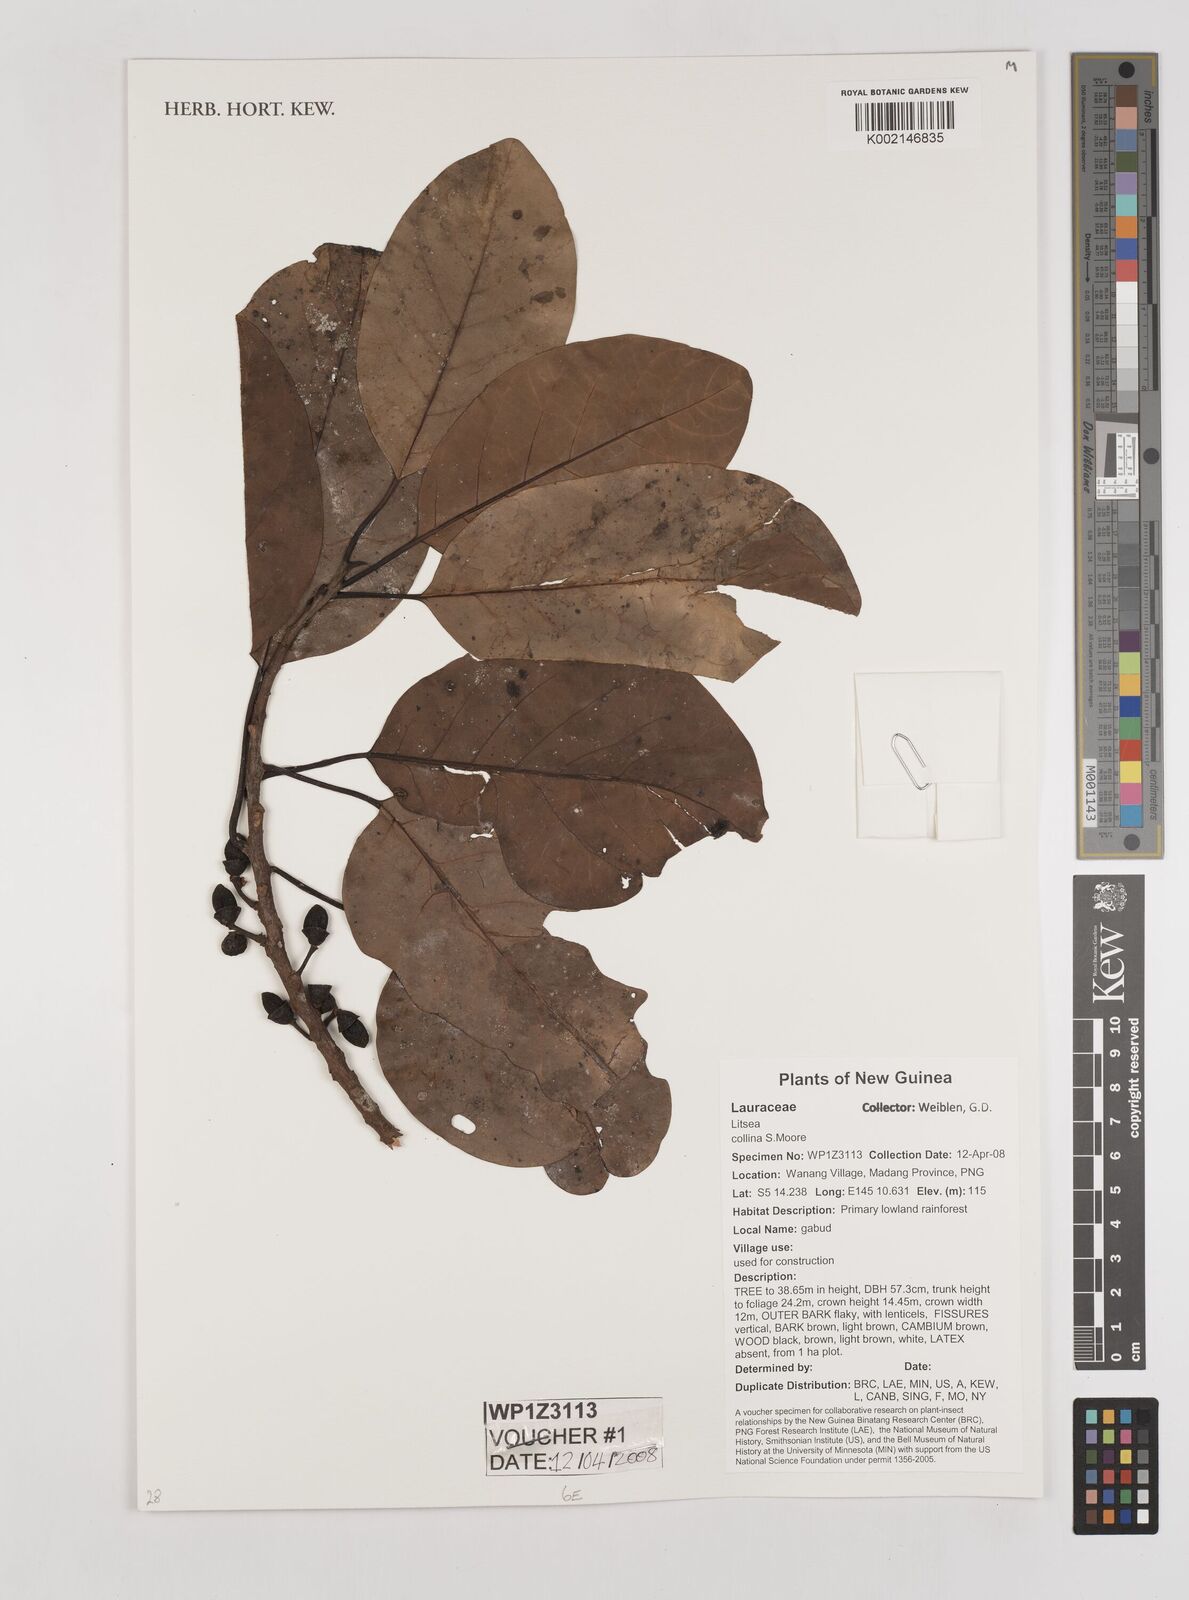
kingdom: Plantae
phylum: Tracheophyta
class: Magnoliopsida
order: Laurales
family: Lauraceae
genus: Litsea
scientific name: Litsea
